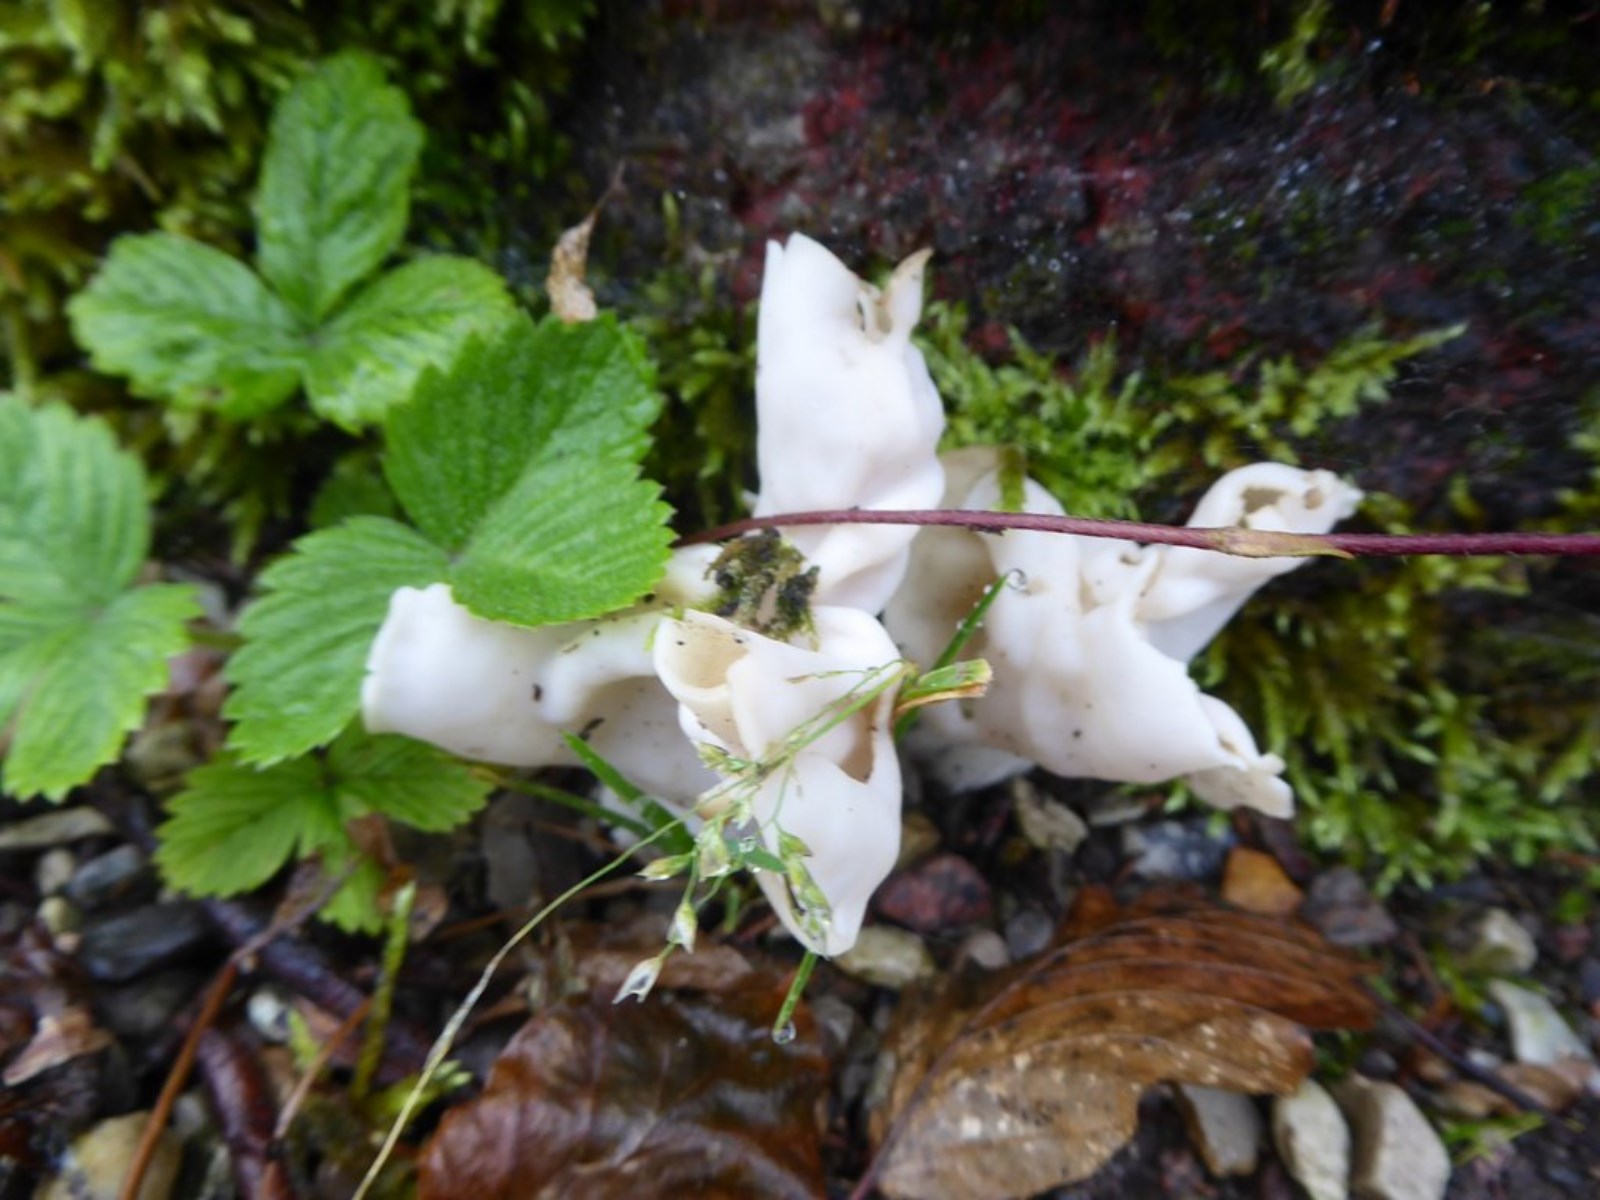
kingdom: Fungi
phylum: Ascomycota
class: Pezizomycetes
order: Pezizales
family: Helvellaceae
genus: Helvella
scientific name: Helvella crispa
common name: kruset foldhat
